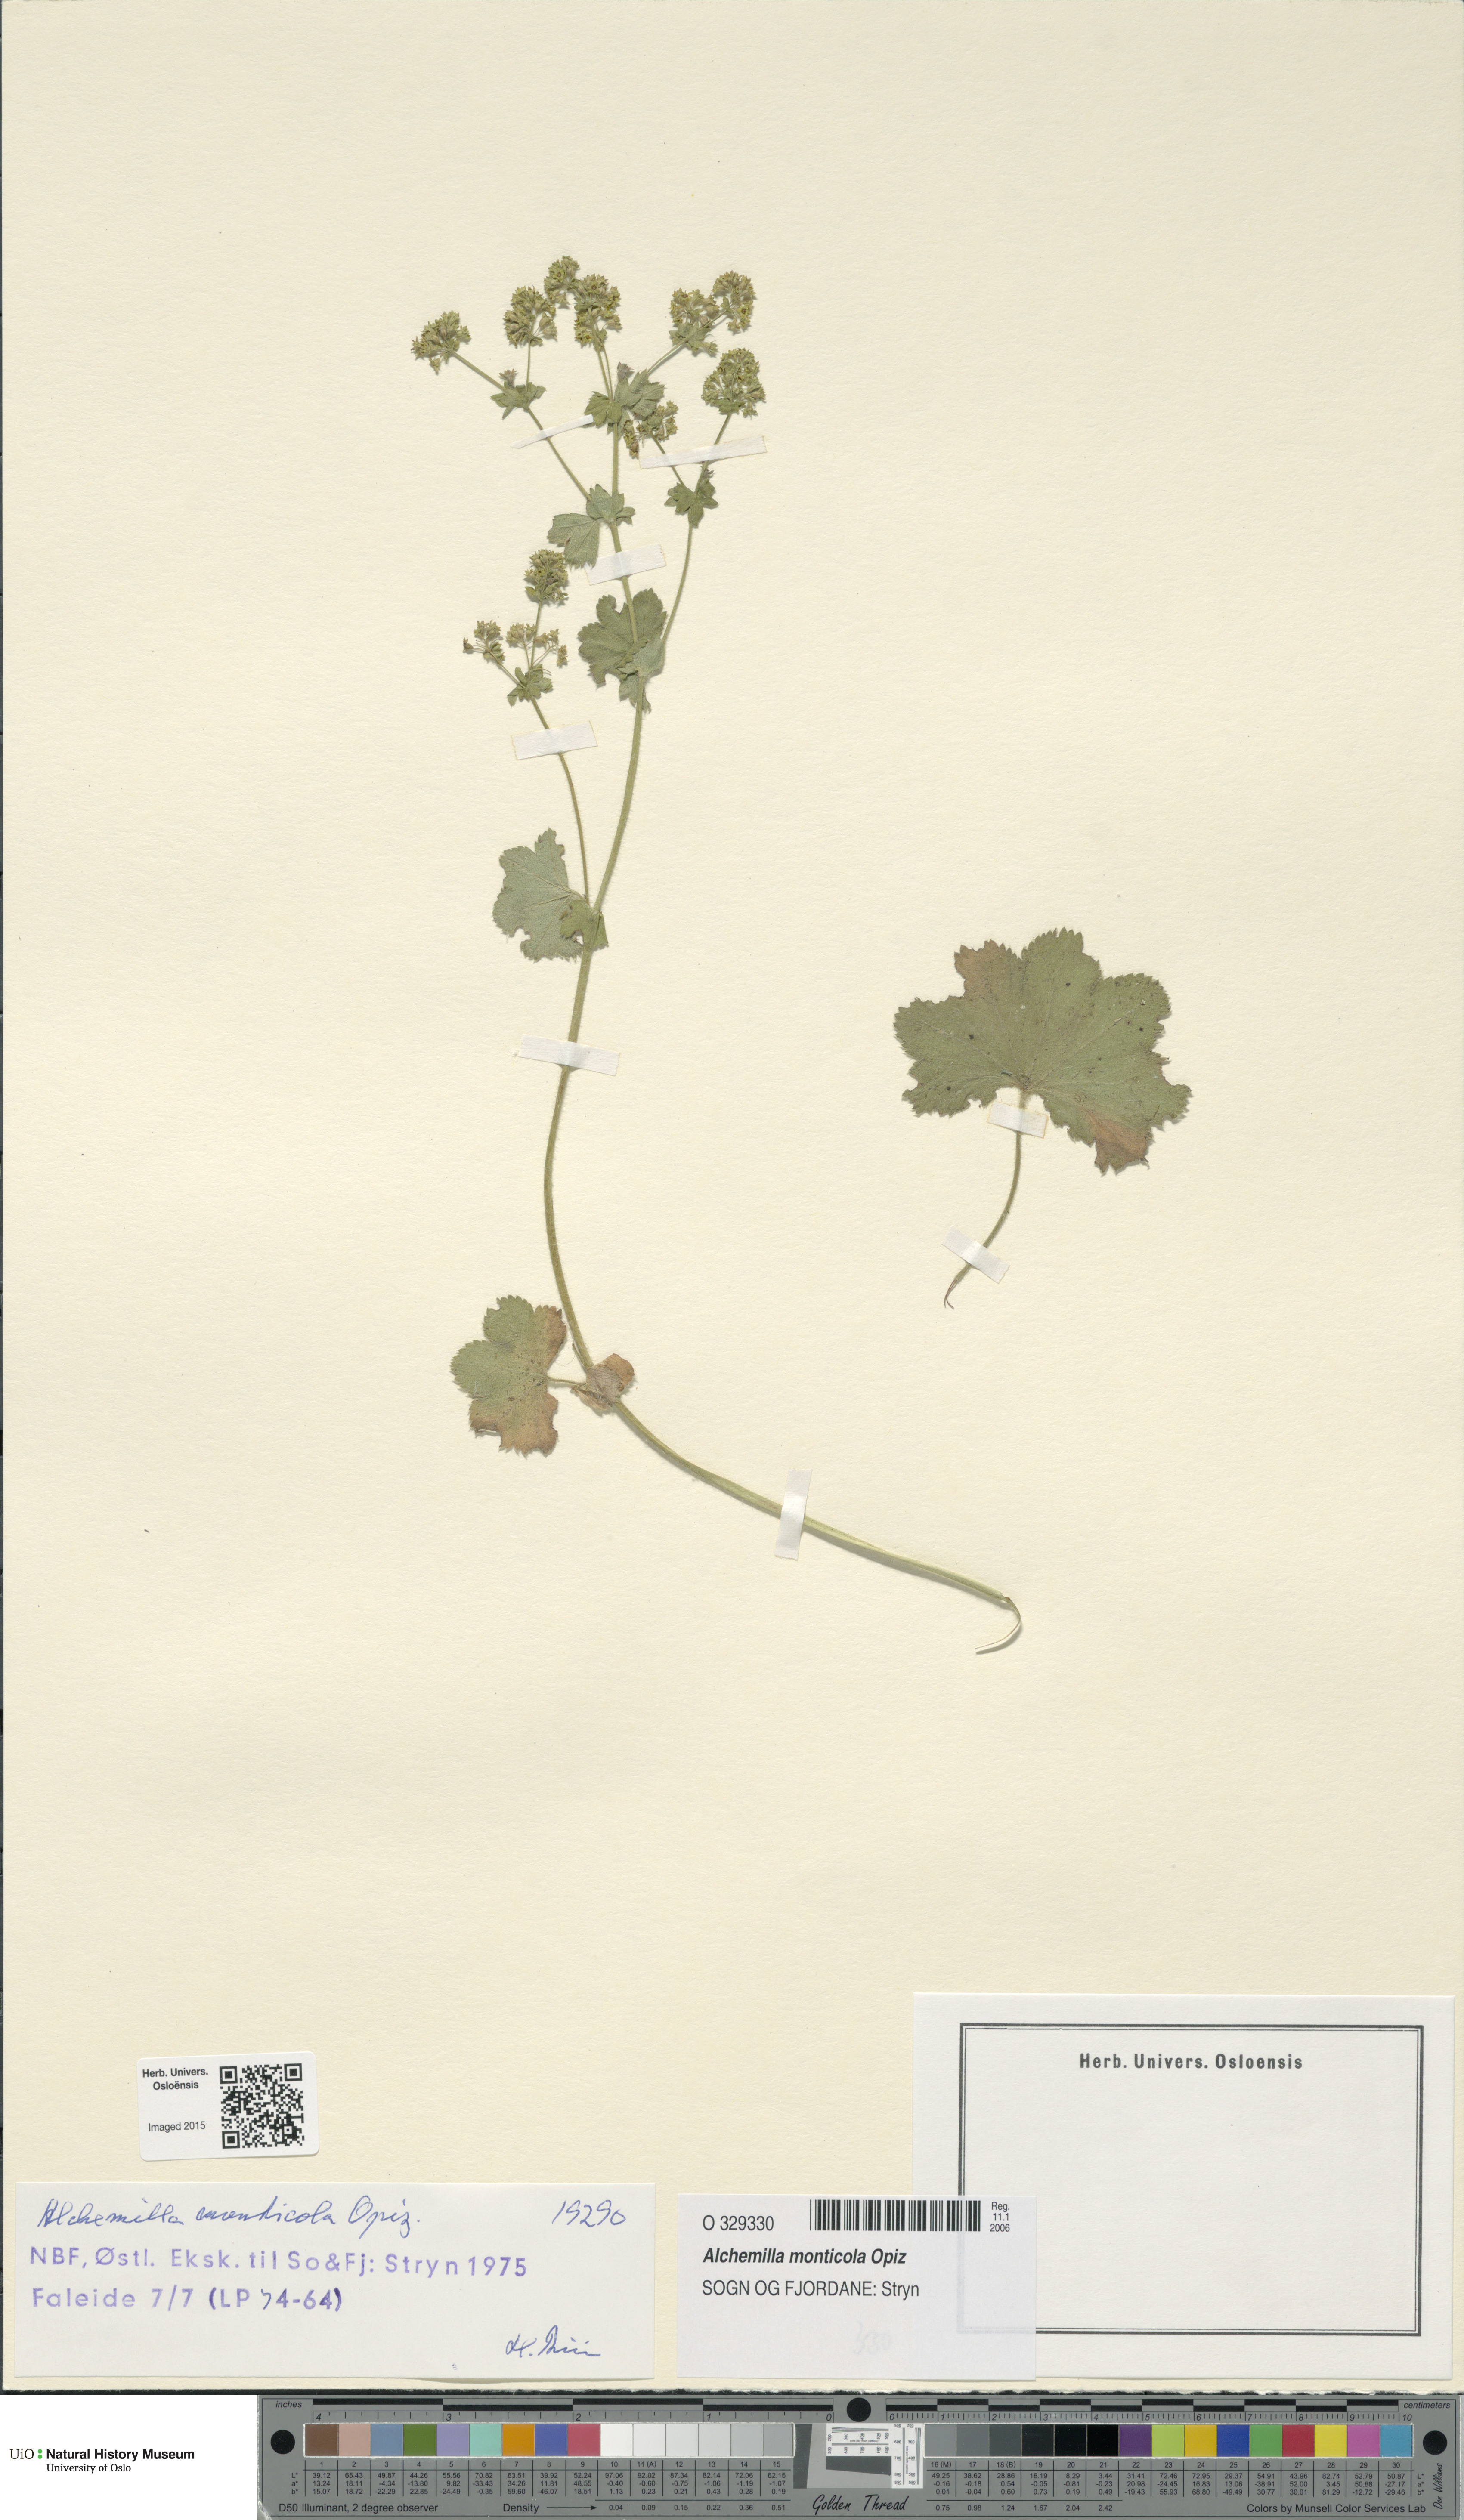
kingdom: Plantae
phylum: Tracheophyta
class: Magnoliopsida
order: Rosales
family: Rosaceae
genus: Alchemilla
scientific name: Alchemilla monticola
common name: Hairy lady's mantle
